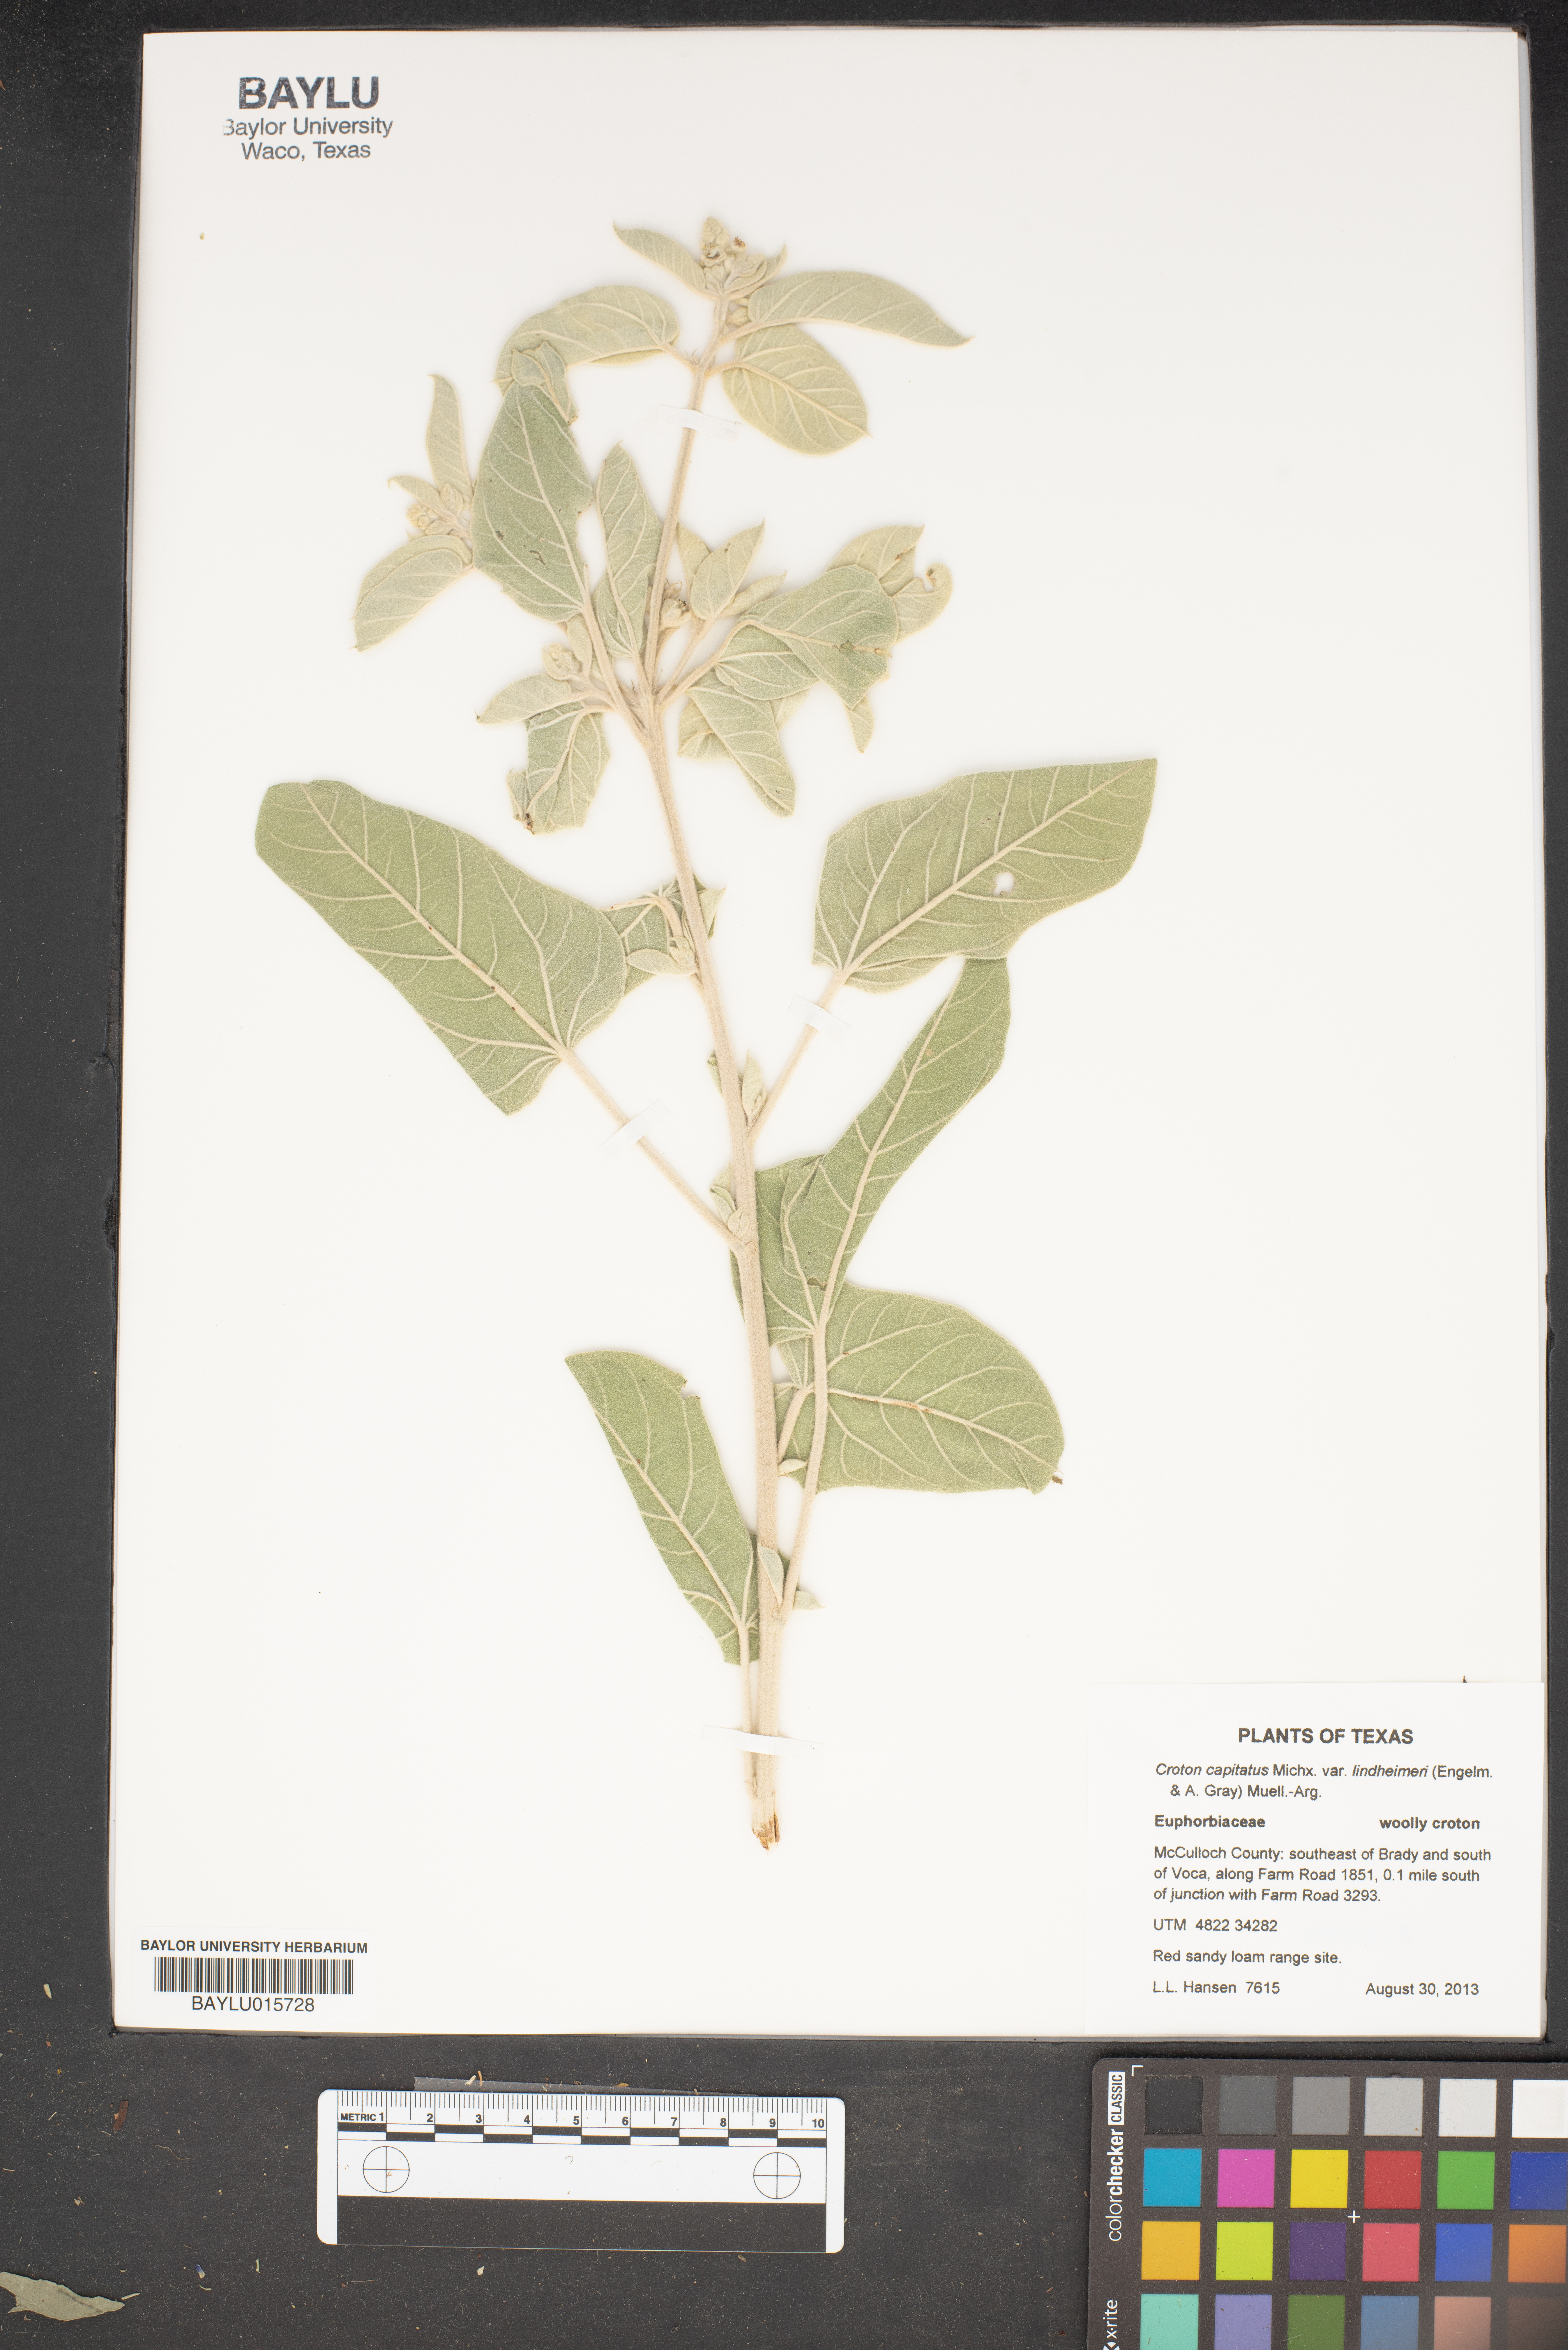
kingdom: Plantae
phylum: Tracheophyta
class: Magnoliopsida
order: Malpighiales
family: Euphorbiaceae
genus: Croton
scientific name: Croton lindheimeri
